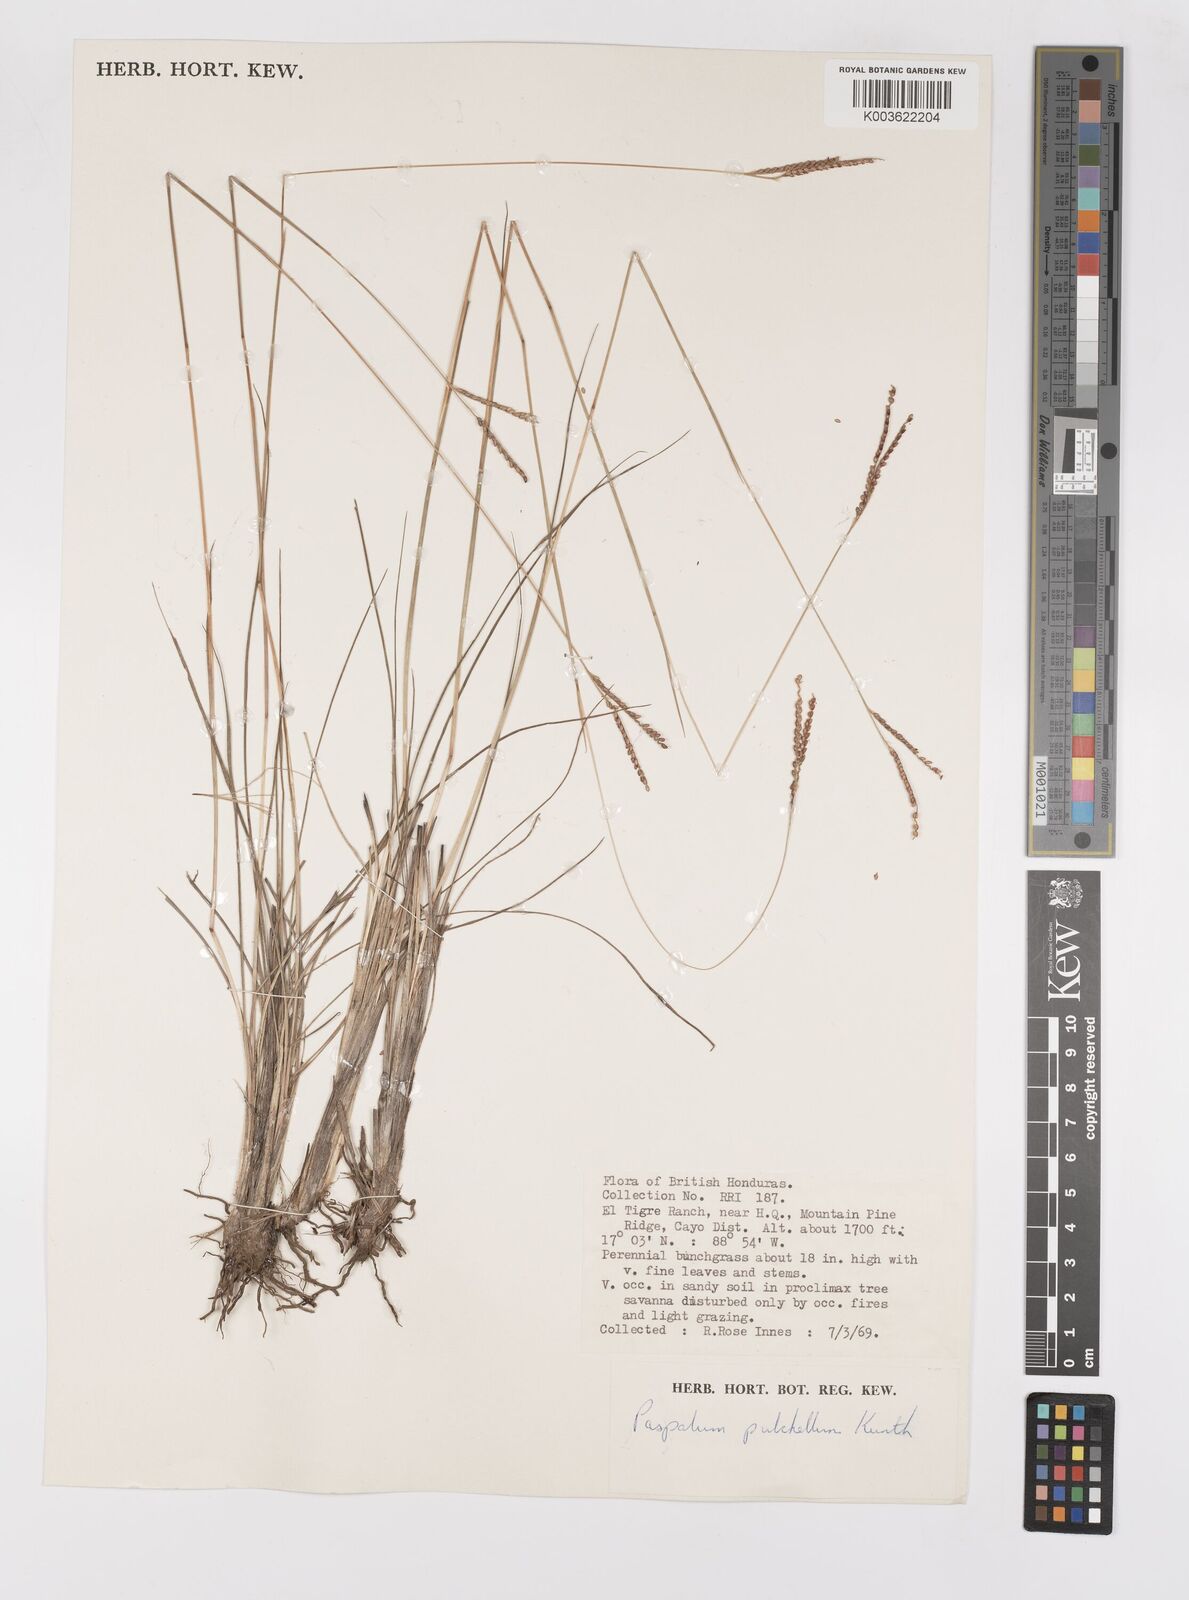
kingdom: Plantae
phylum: Tracheophyta
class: Liliopsida
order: Poales
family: Poaceae
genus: Paspalum
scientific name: Paspalum pulchellum
